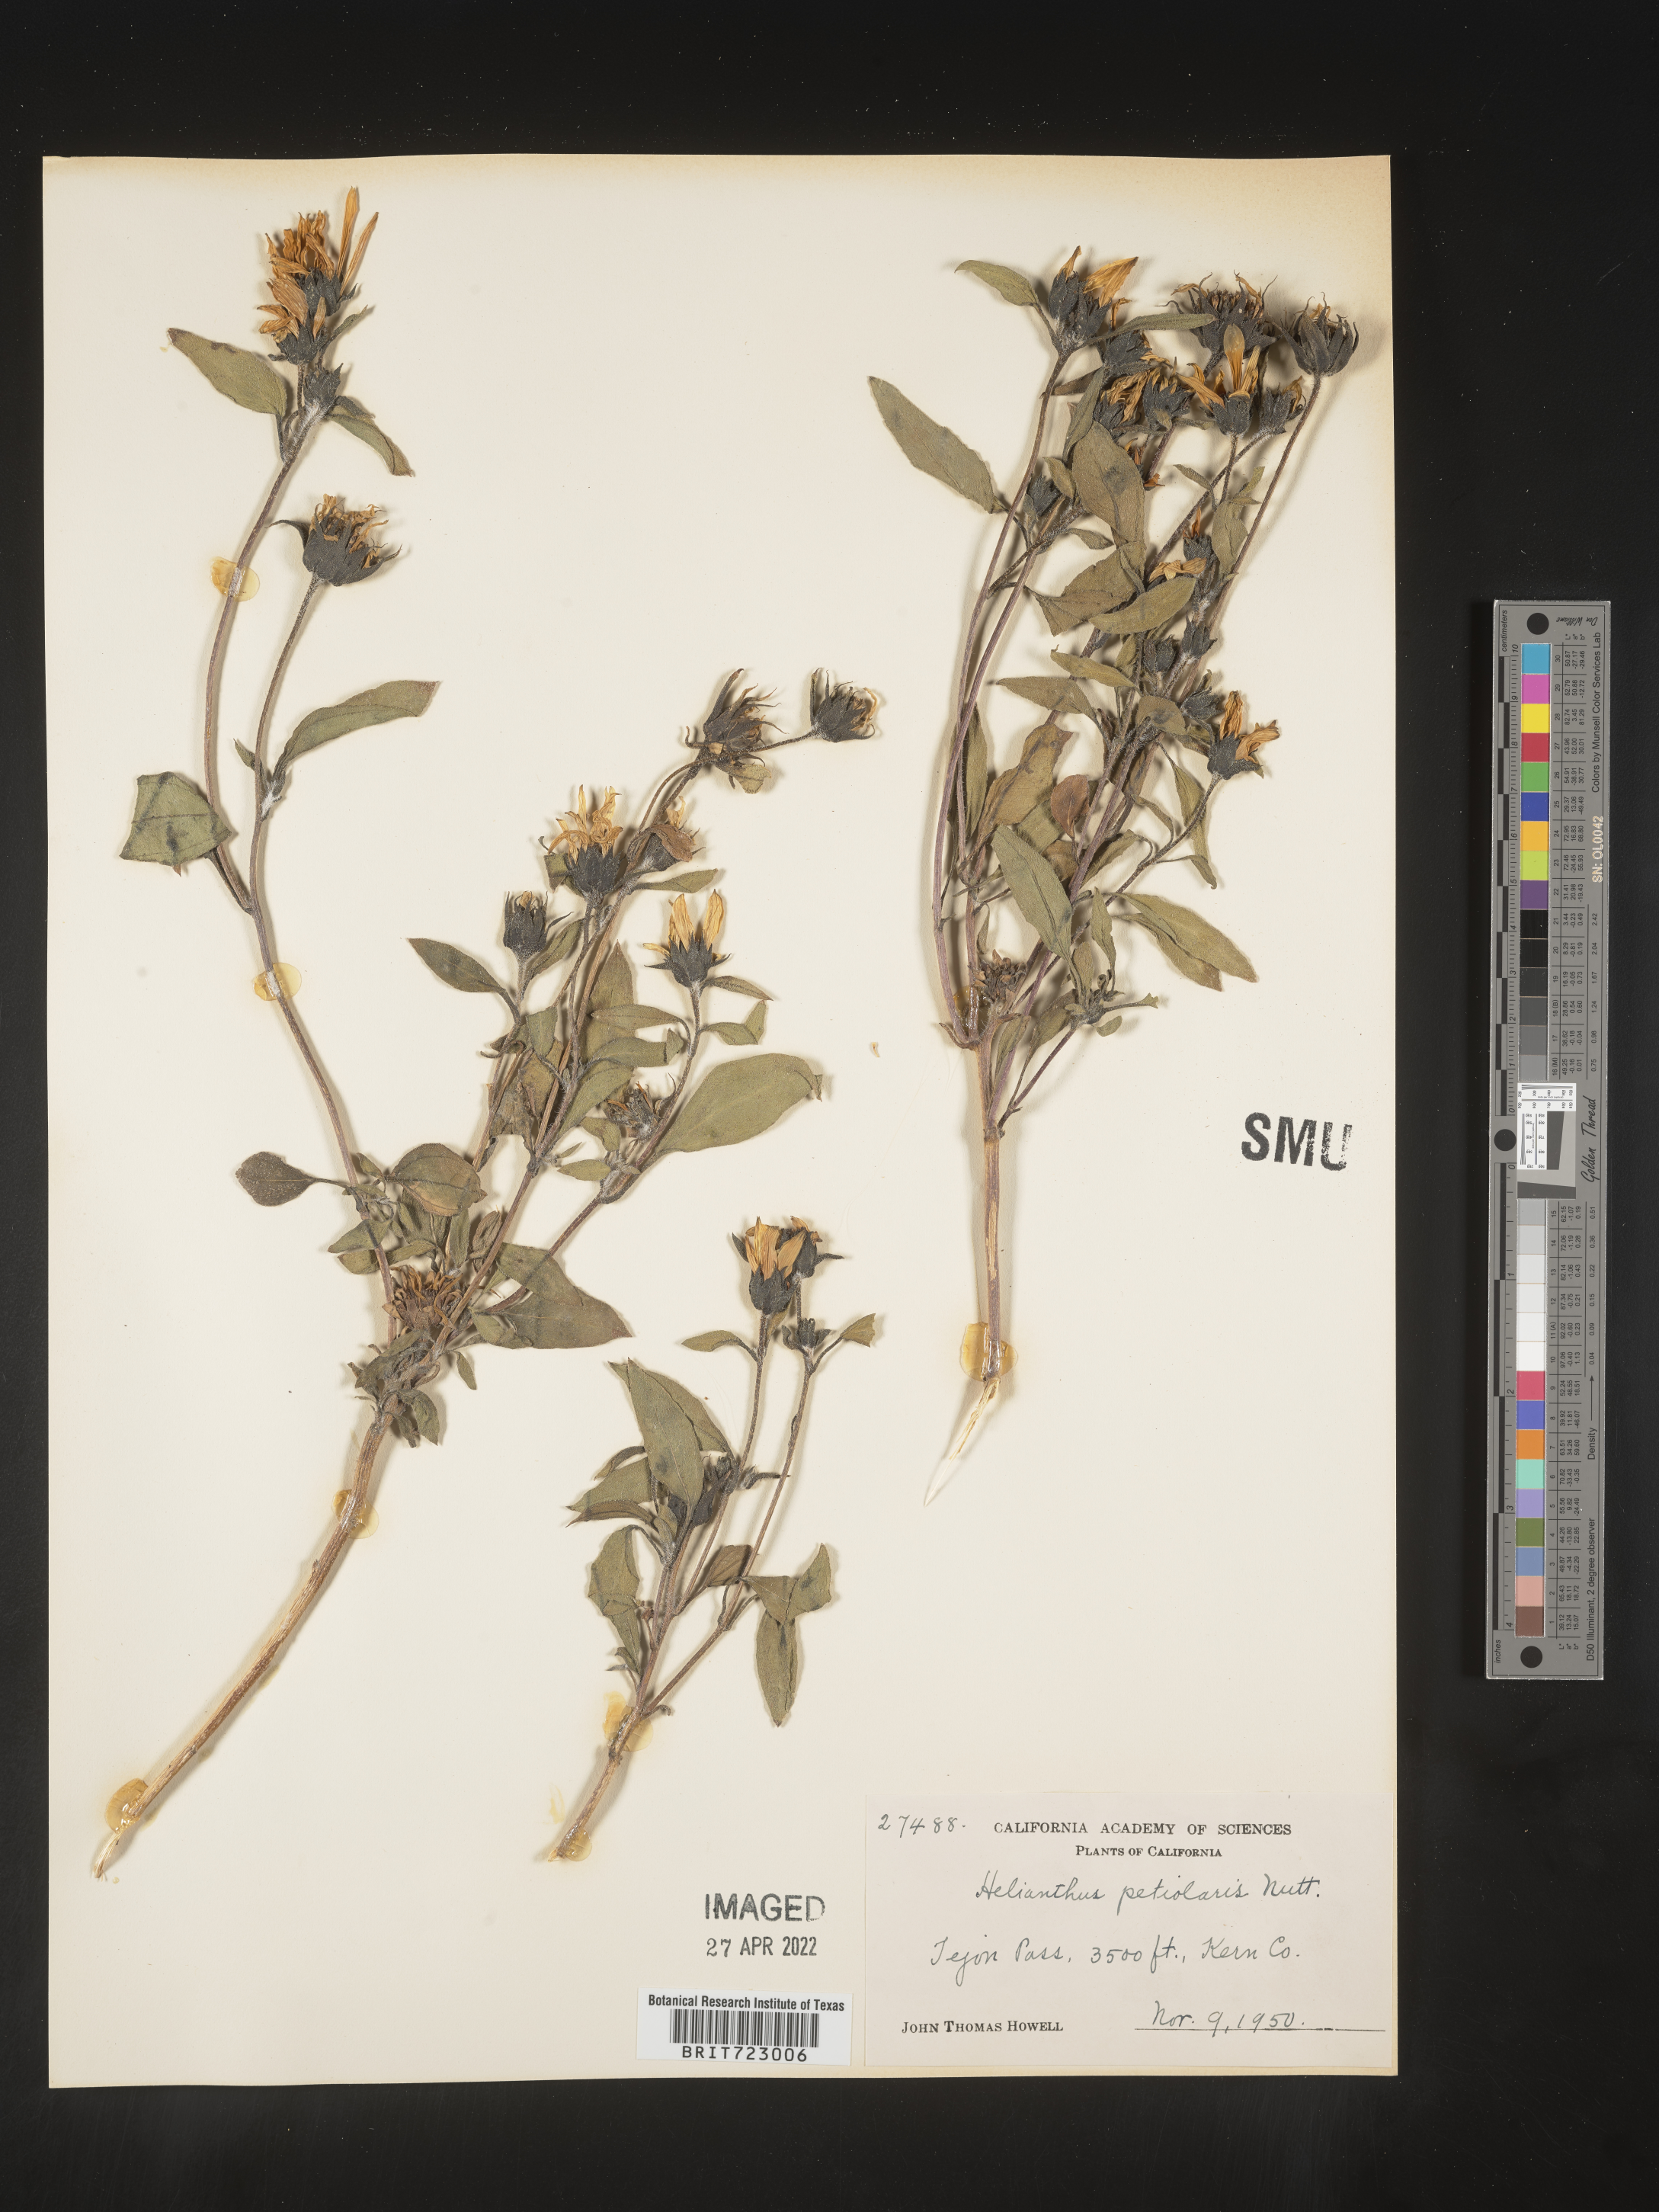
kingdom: Plantae
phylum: Tracheophyta
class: Magnoliopsida
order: Asterales
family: Asteraceae
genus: Helianthus
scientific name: Helianthus
